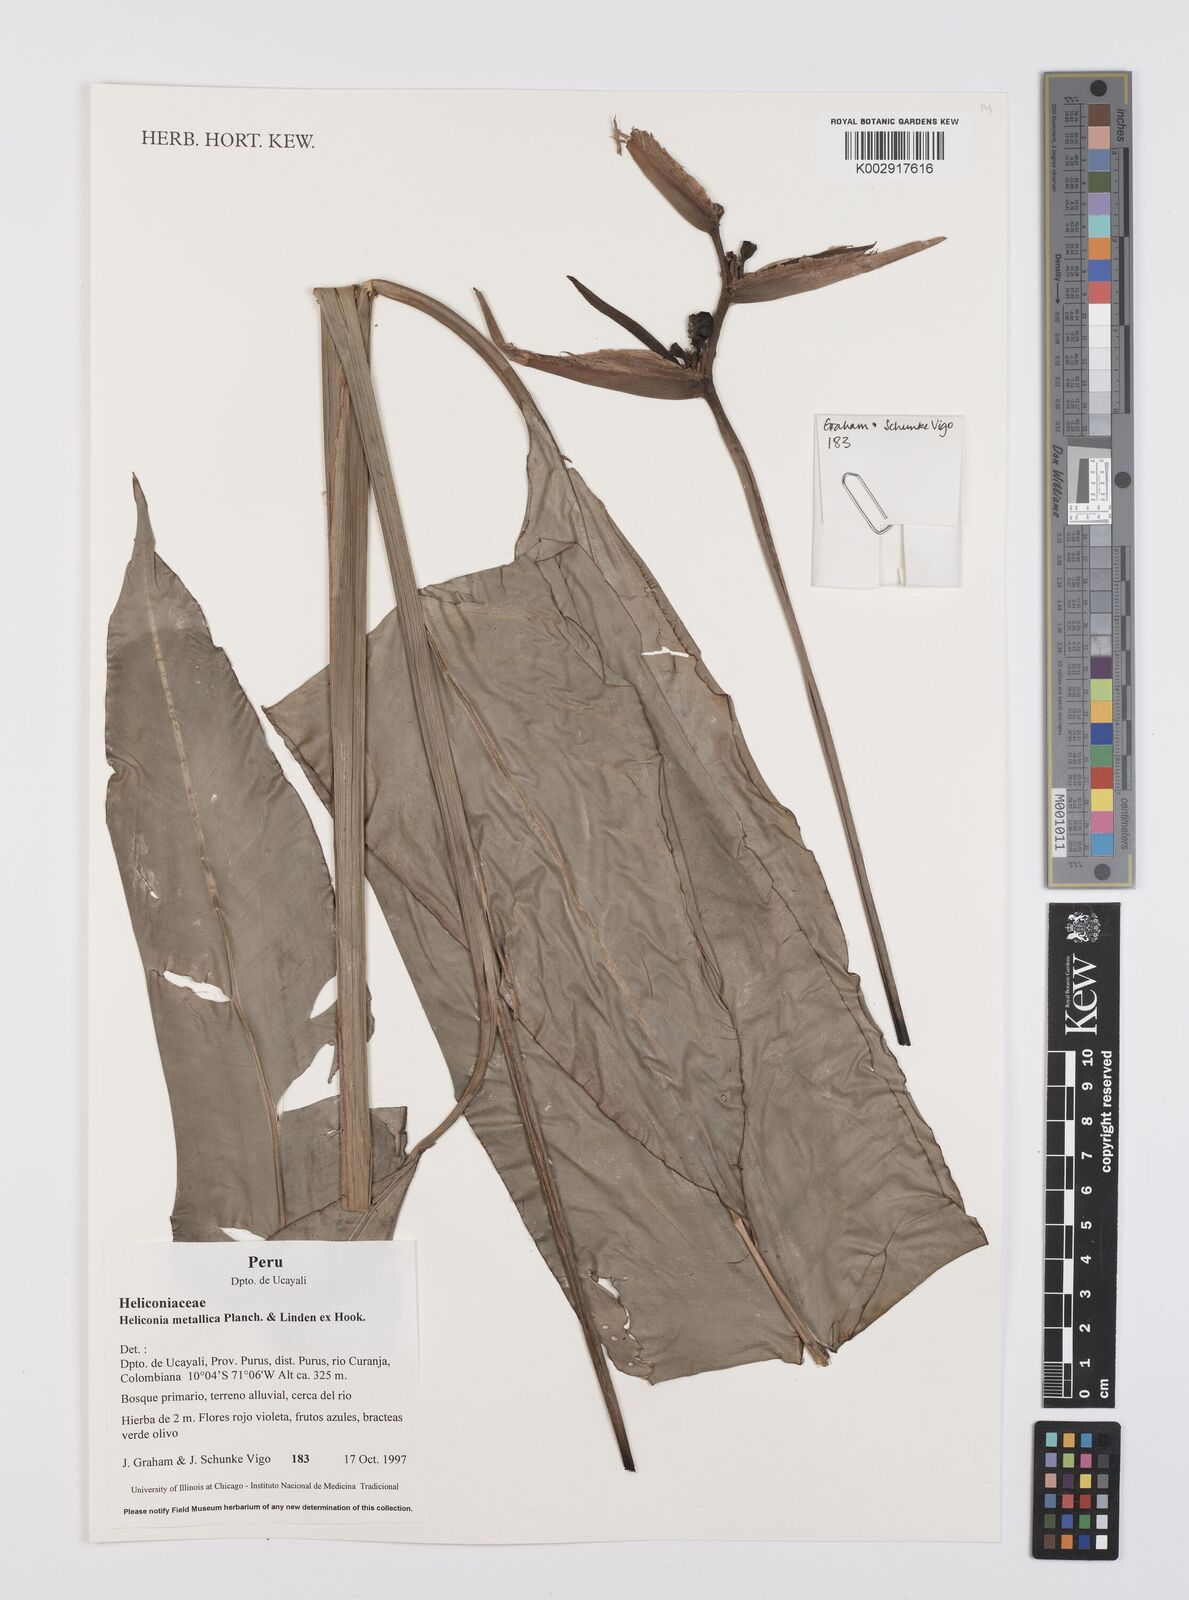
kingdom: Plantae
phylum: Tracheophyta
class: Liliopsida
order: Zingiberales
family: Heliconiaceae
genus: Heliconia
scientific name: Heliconia metallica
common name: Shining bird of paradise
